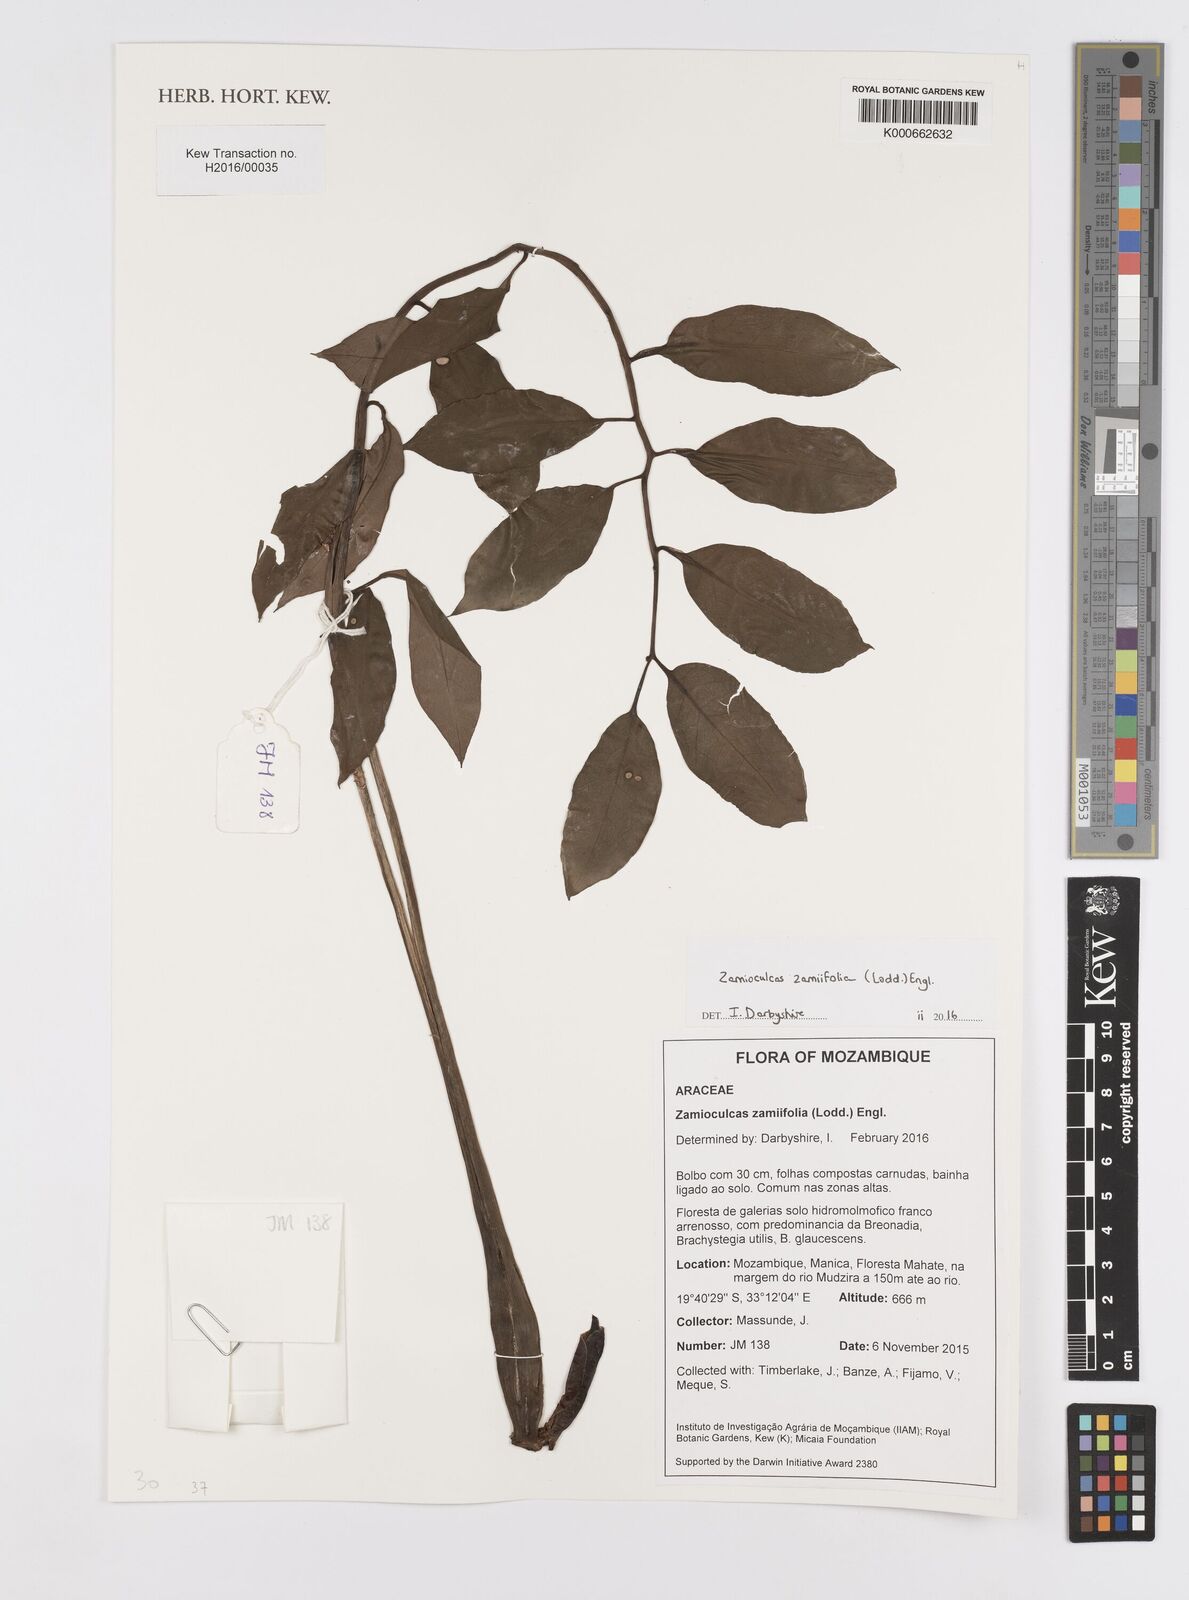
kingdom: Plantae
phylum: Tracheophyta
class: Liliopsida
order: Alismatales
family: Araceae
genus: Zamioculcas
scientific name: Zamioculcas zamiifolia
